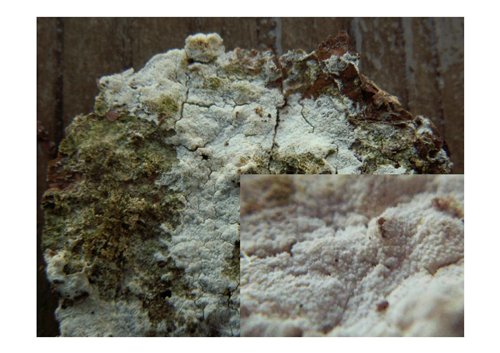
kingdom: Fungi
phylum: Basidiomycota
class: Agaricomycetes
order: Hymenochaetales
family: Schizoporaceae
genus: Xylodon
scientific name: Xylodon brevisetus
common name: tætvortet tandsvamp
